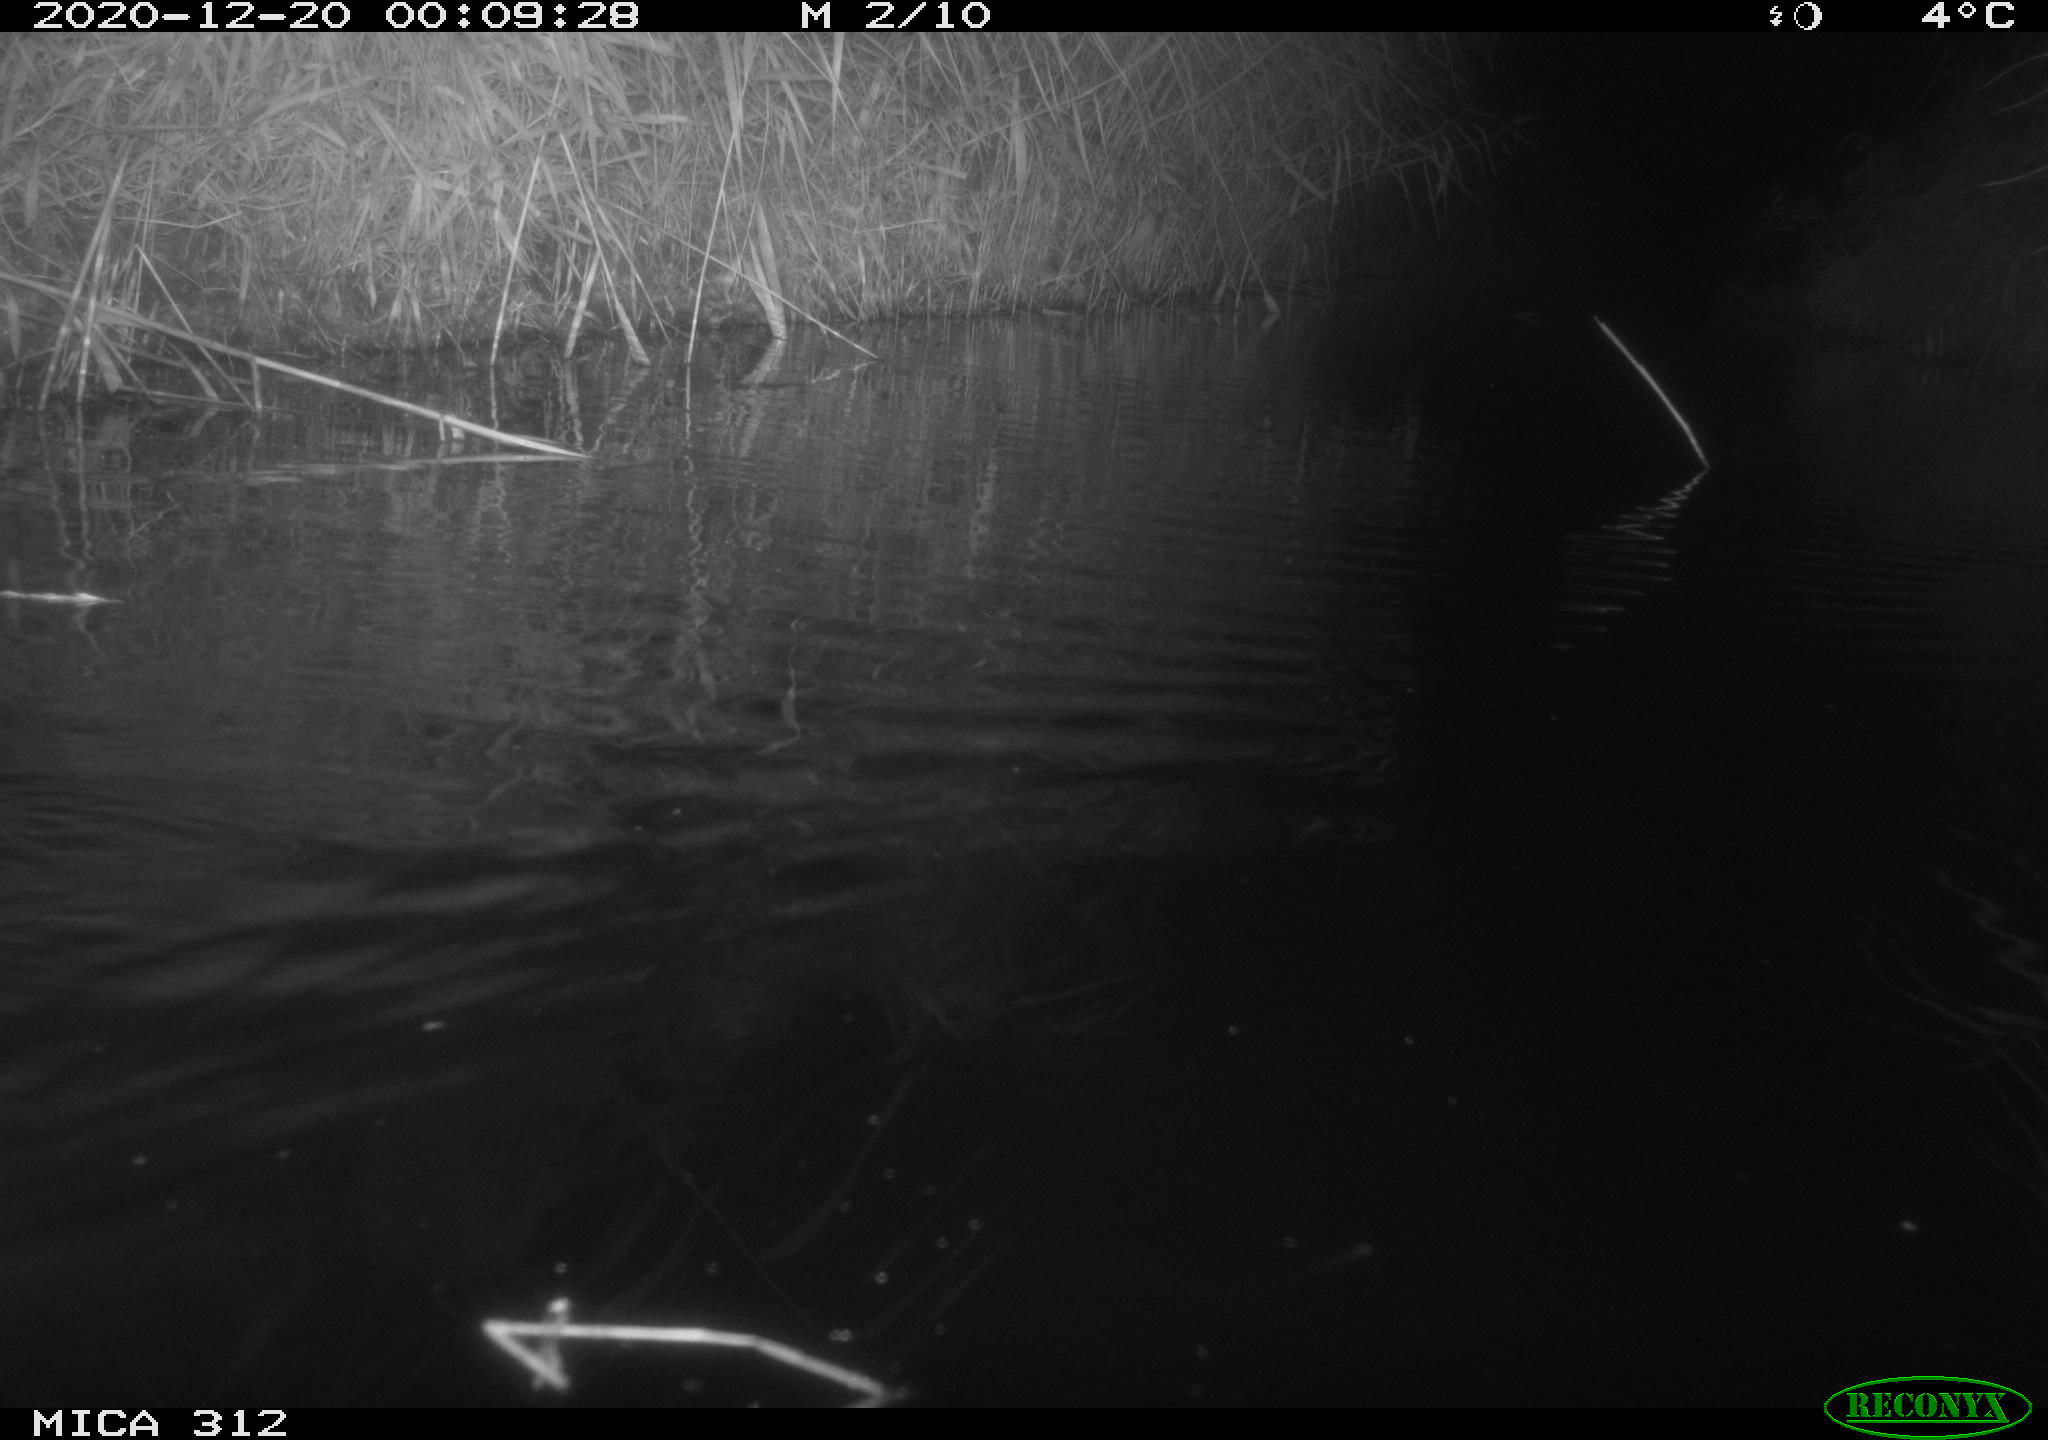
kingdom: Animalia
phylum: Chordata
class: Mammalia
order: Rodentia
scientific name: Rodentia
